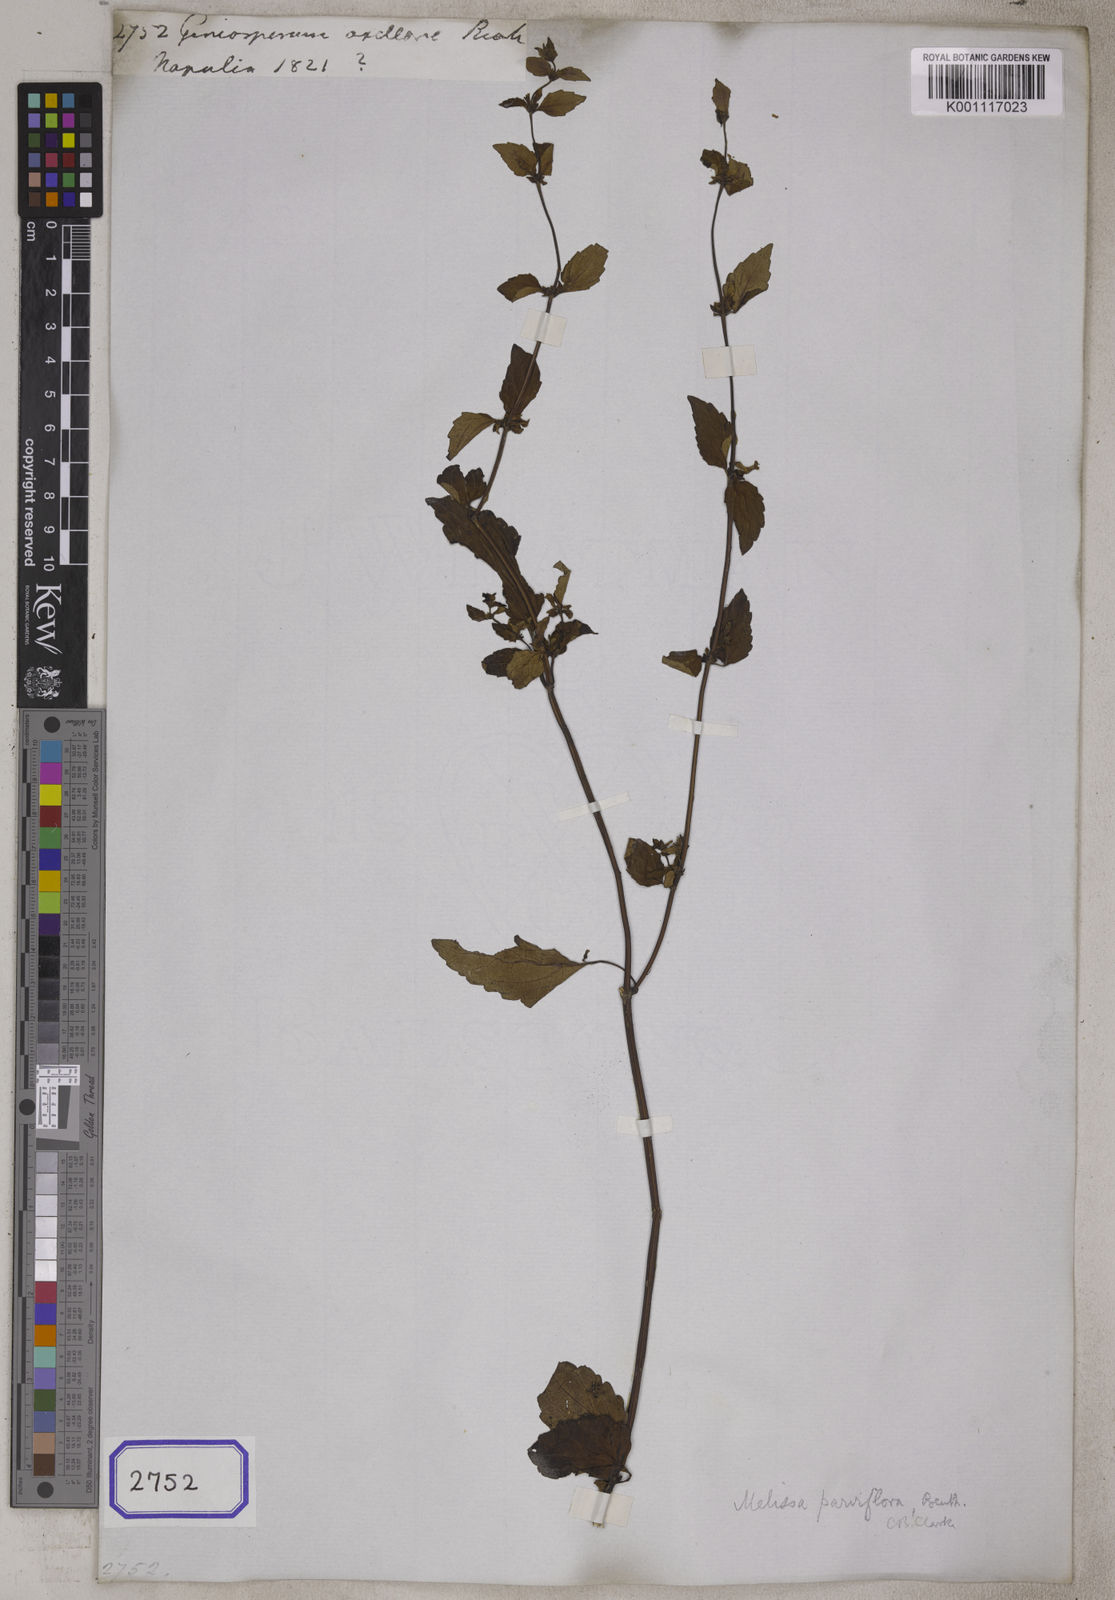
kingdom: Plantae
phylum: Tracheophyta
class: Magnoliopsida
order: Lamiales
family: Lamiaceae
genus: Melissa
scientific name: Melissa axillaris
